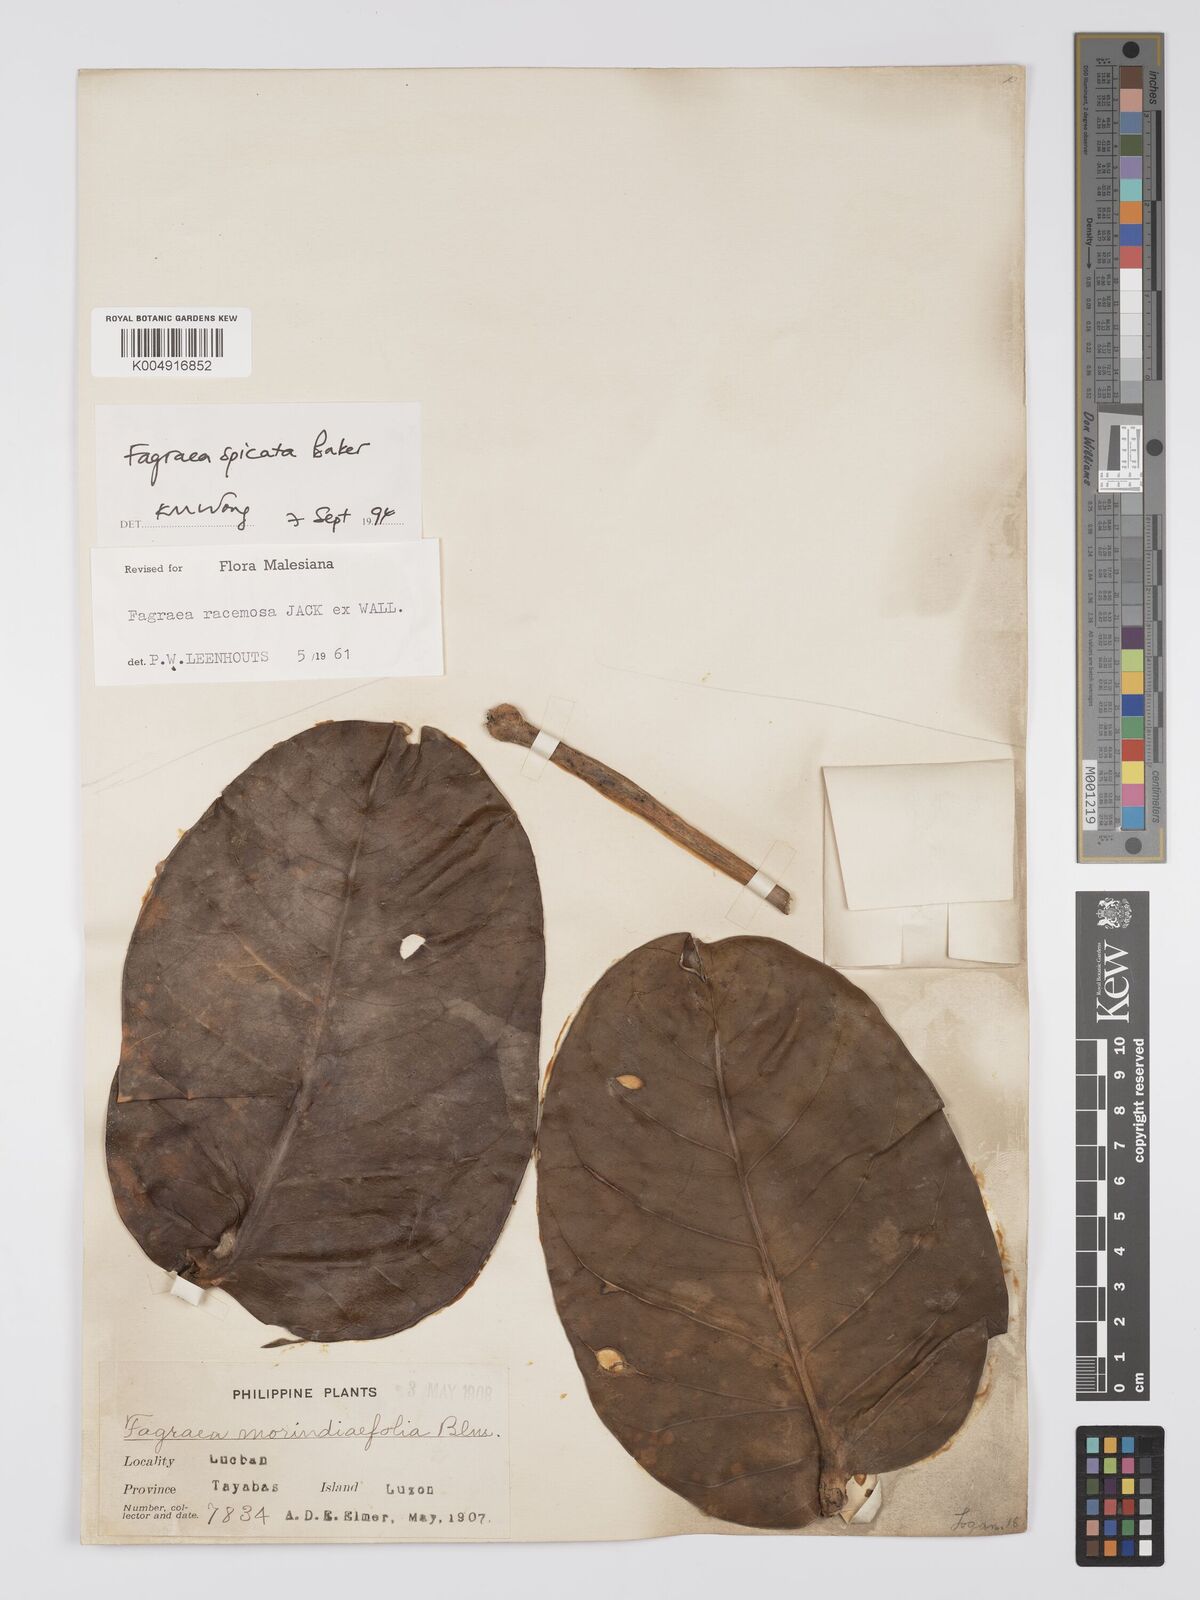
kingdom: Plantae
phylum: Tracheophyta
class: Magnoliopsida
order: Gentianales
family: Gentianaceae
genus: Utania
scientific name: Utania racemosa
